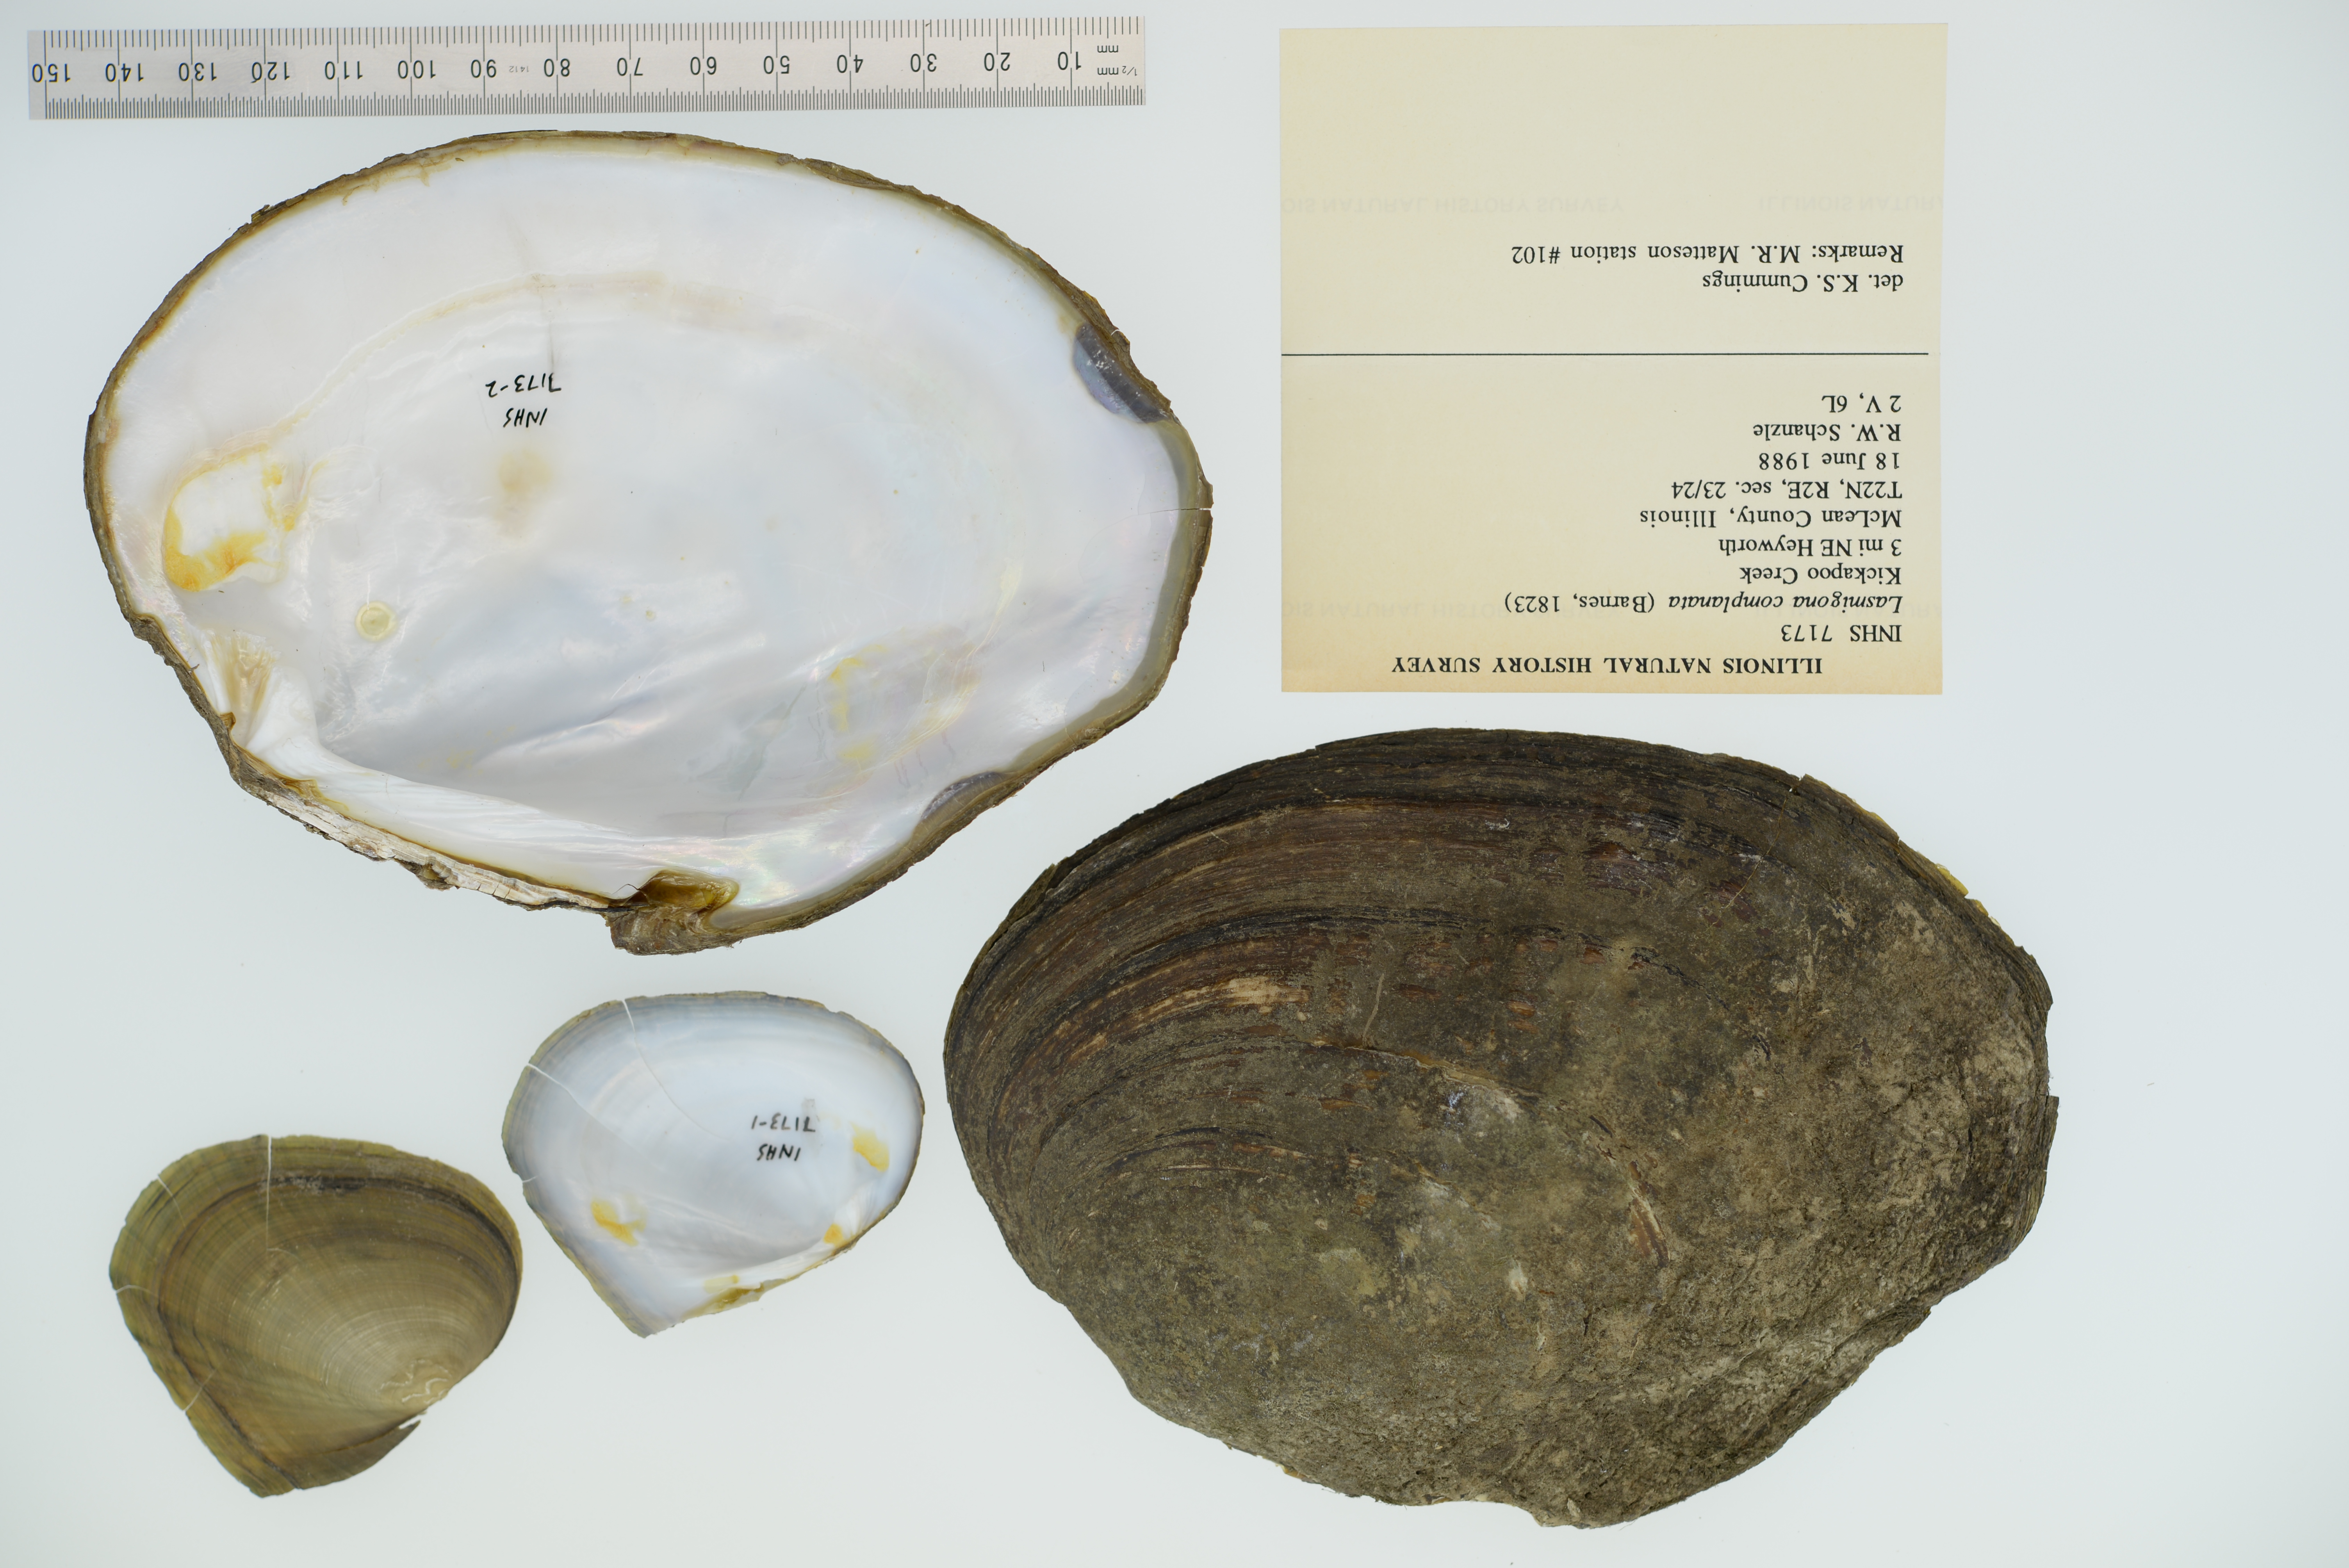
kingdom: Animalia
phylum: Mollusca
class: Bivalvia
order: Unionida
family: Unionidae
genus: Lasmigona
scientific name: Lasmigona complanata
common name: White heelsplitter
